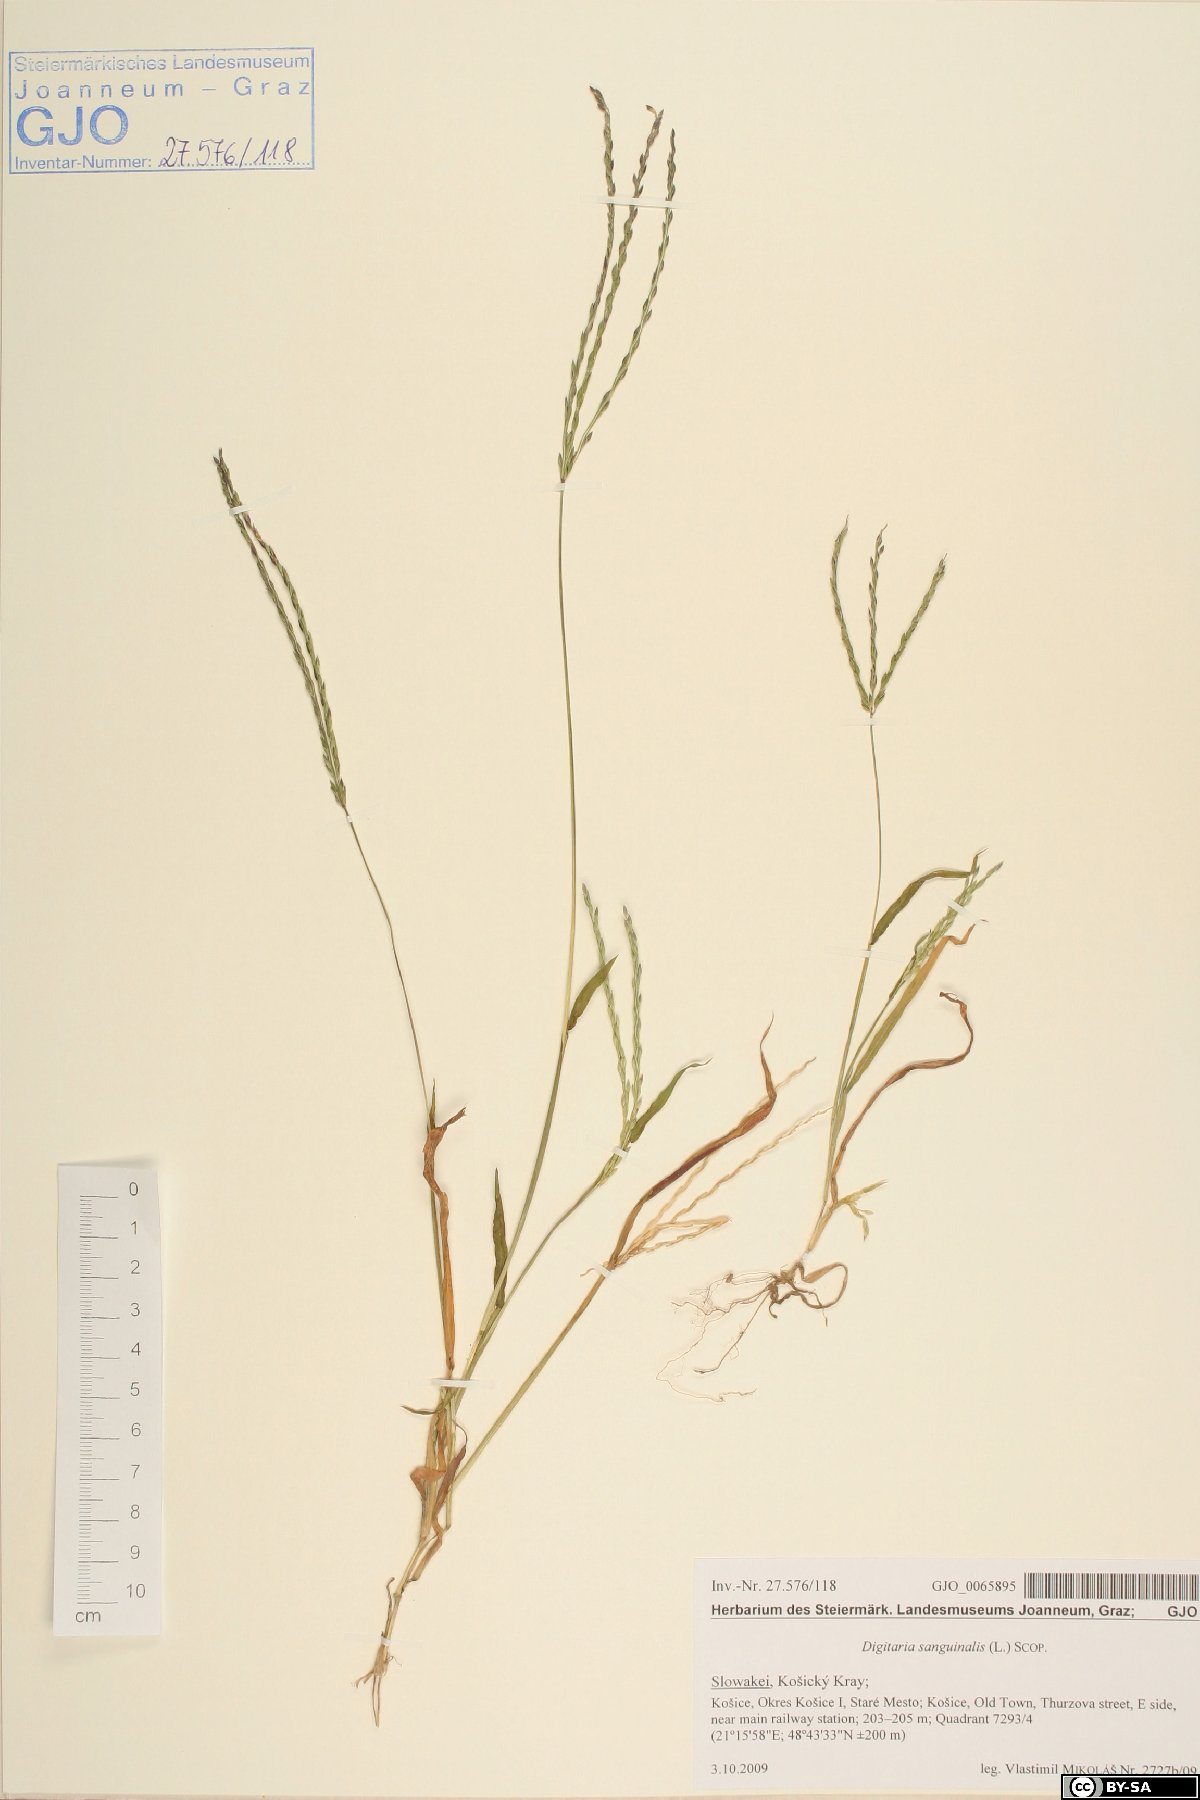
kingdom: Plantae
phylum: Tracheophyta
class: Liliopsida
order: Poales
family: Poaceae
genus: Digitaria
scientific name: Digitaria sanguinalis
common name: Hairy crabgrass
